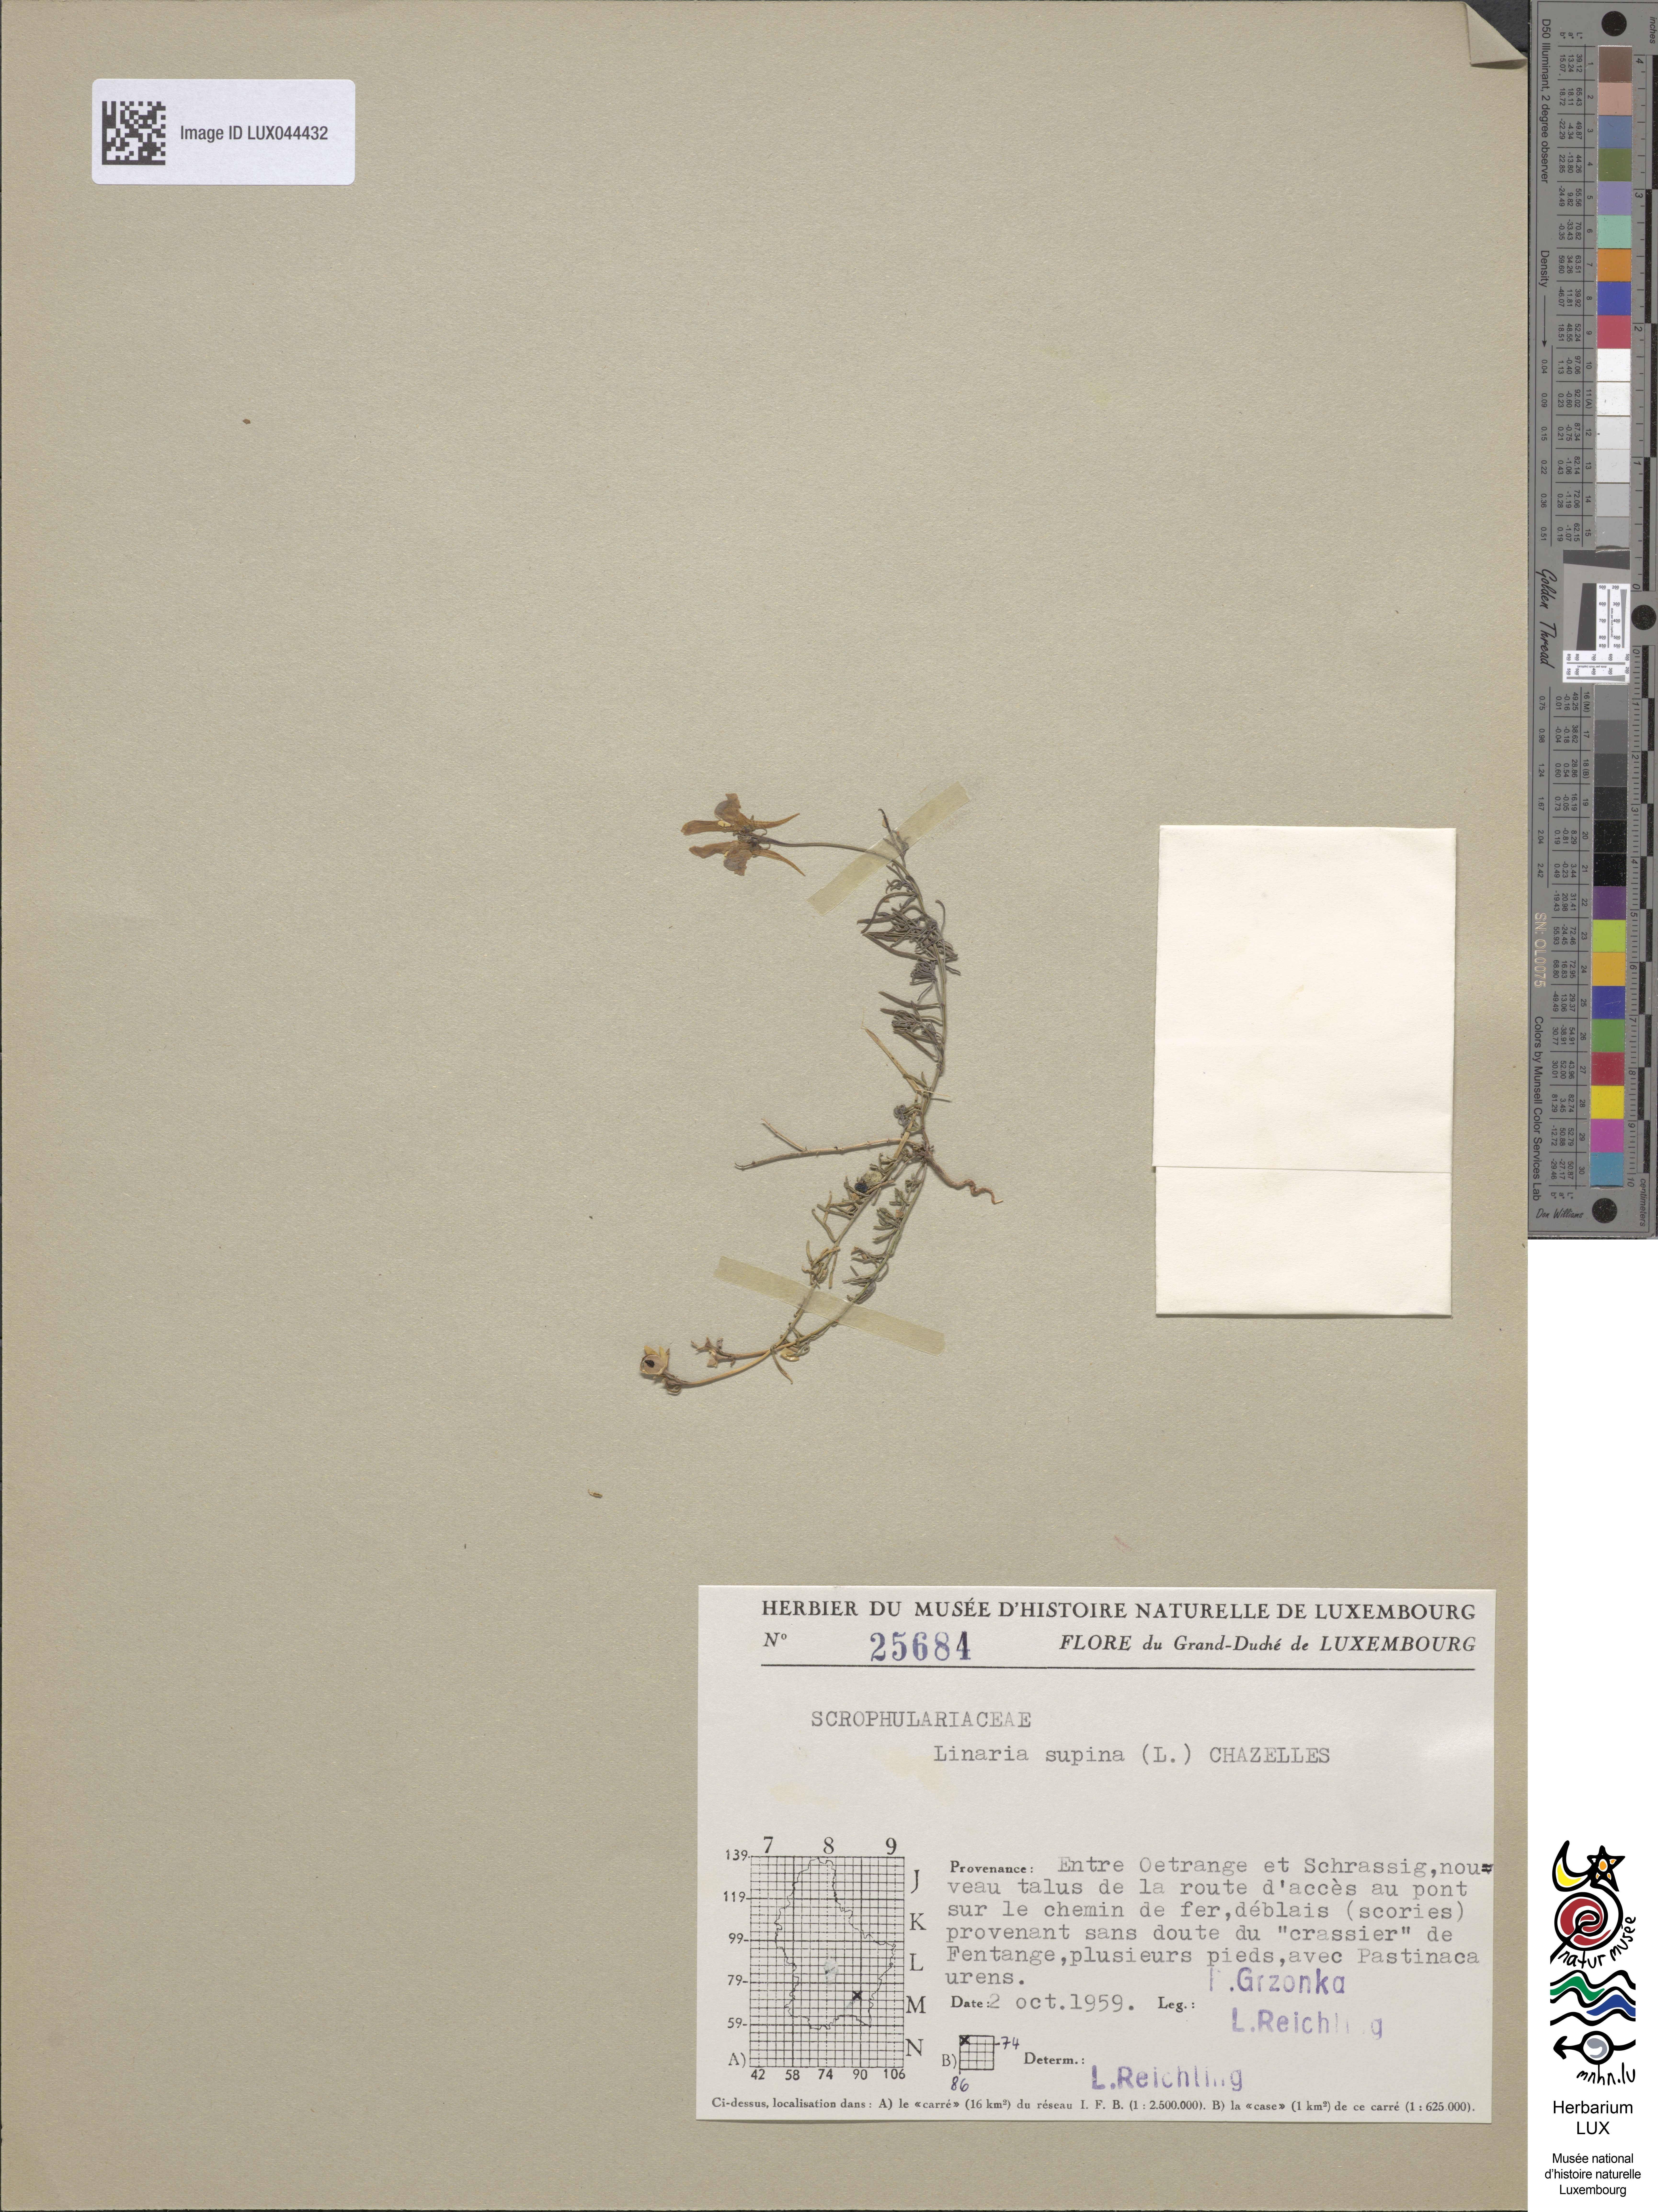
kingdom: Plantae
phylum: Tracheophyta
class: Magnoliopsida
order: Lamiales
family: Plantaginaceae
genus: Linaria
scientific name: Linaria supina
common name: Prostrate toadflax
